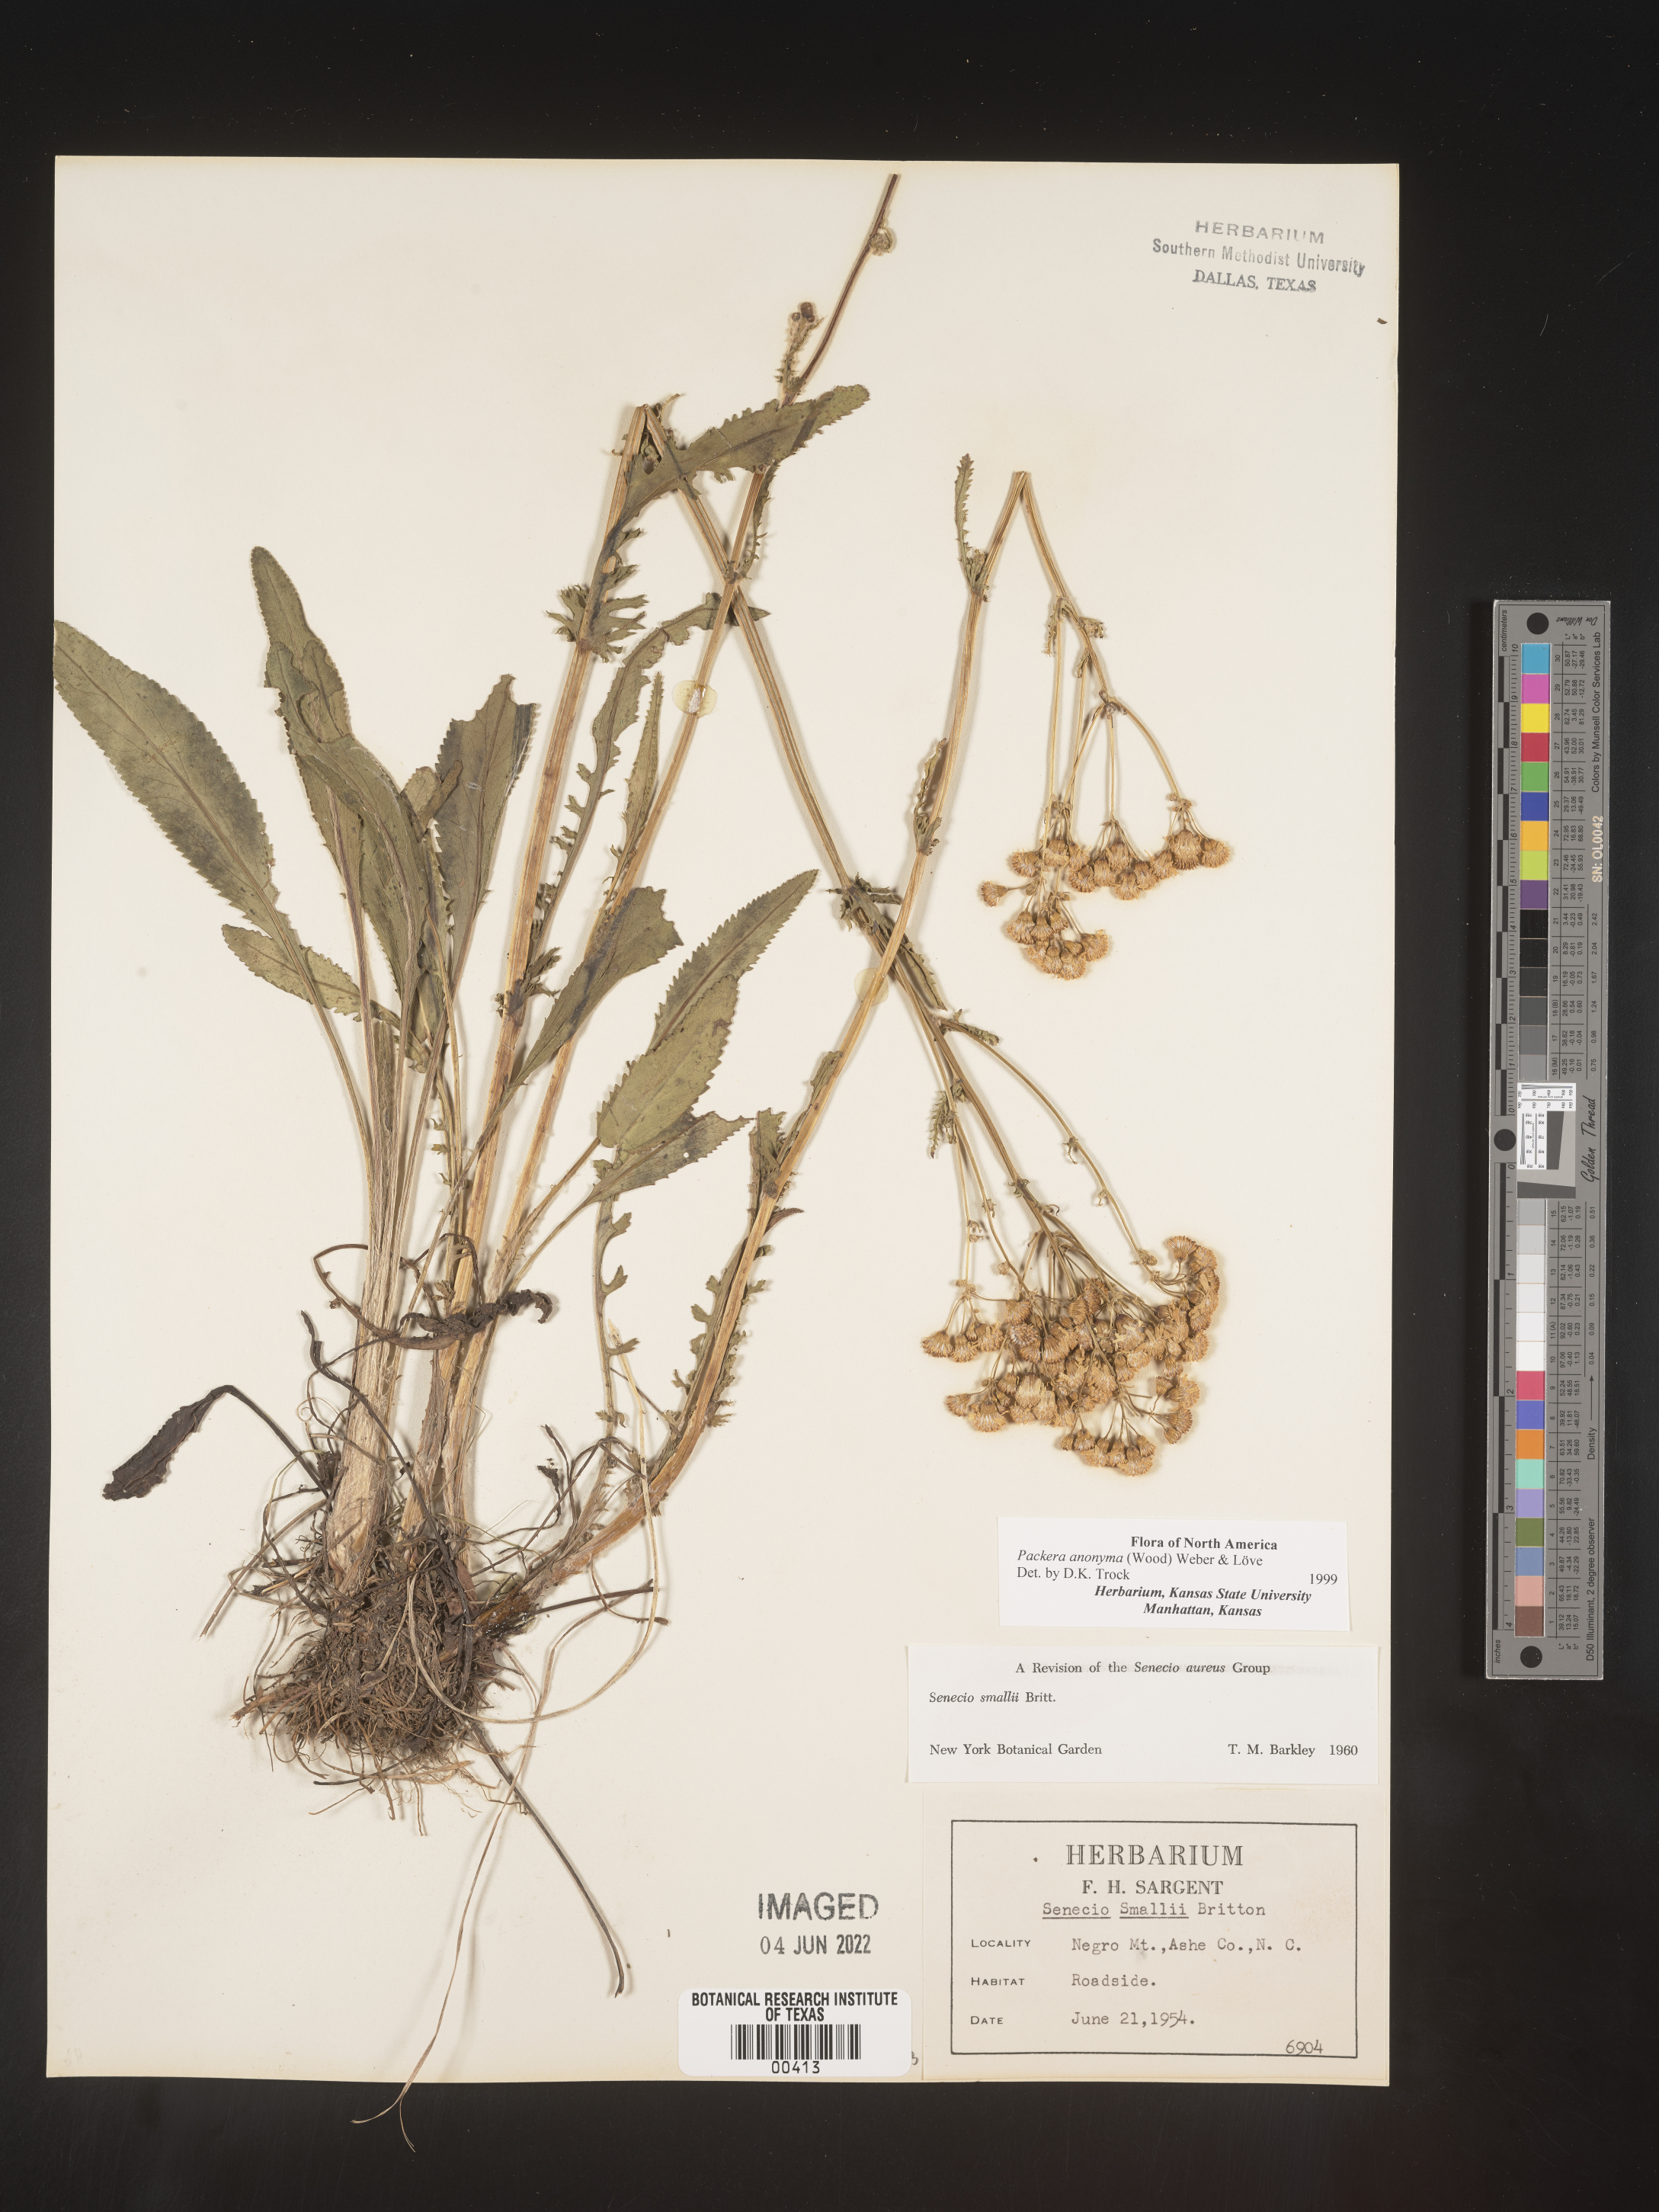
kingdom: Plantae
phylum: Tracheophyta
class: Magnoliopsida
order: Asterales
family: Asteraceae
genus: Packera
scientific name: Packera anonyma
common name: Small ragwort
